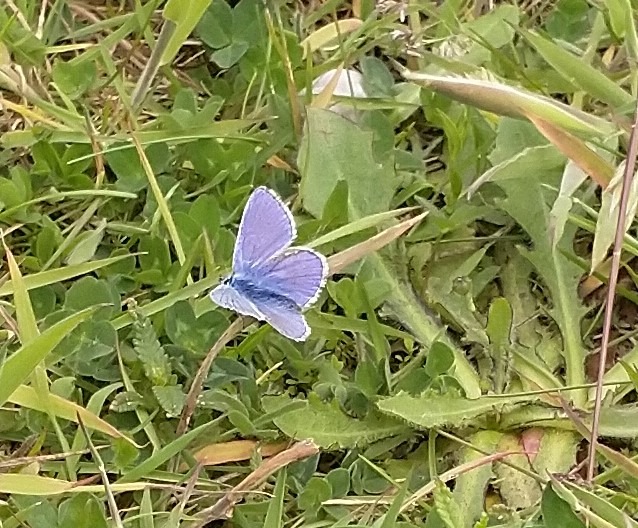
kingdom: Animalia
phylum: Arthropoda
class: Insecta
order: Lepidoptera
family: Lycaenidae
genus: Polyommatus
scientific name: Polyommatus icarus
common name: Almindelig blåfugl
